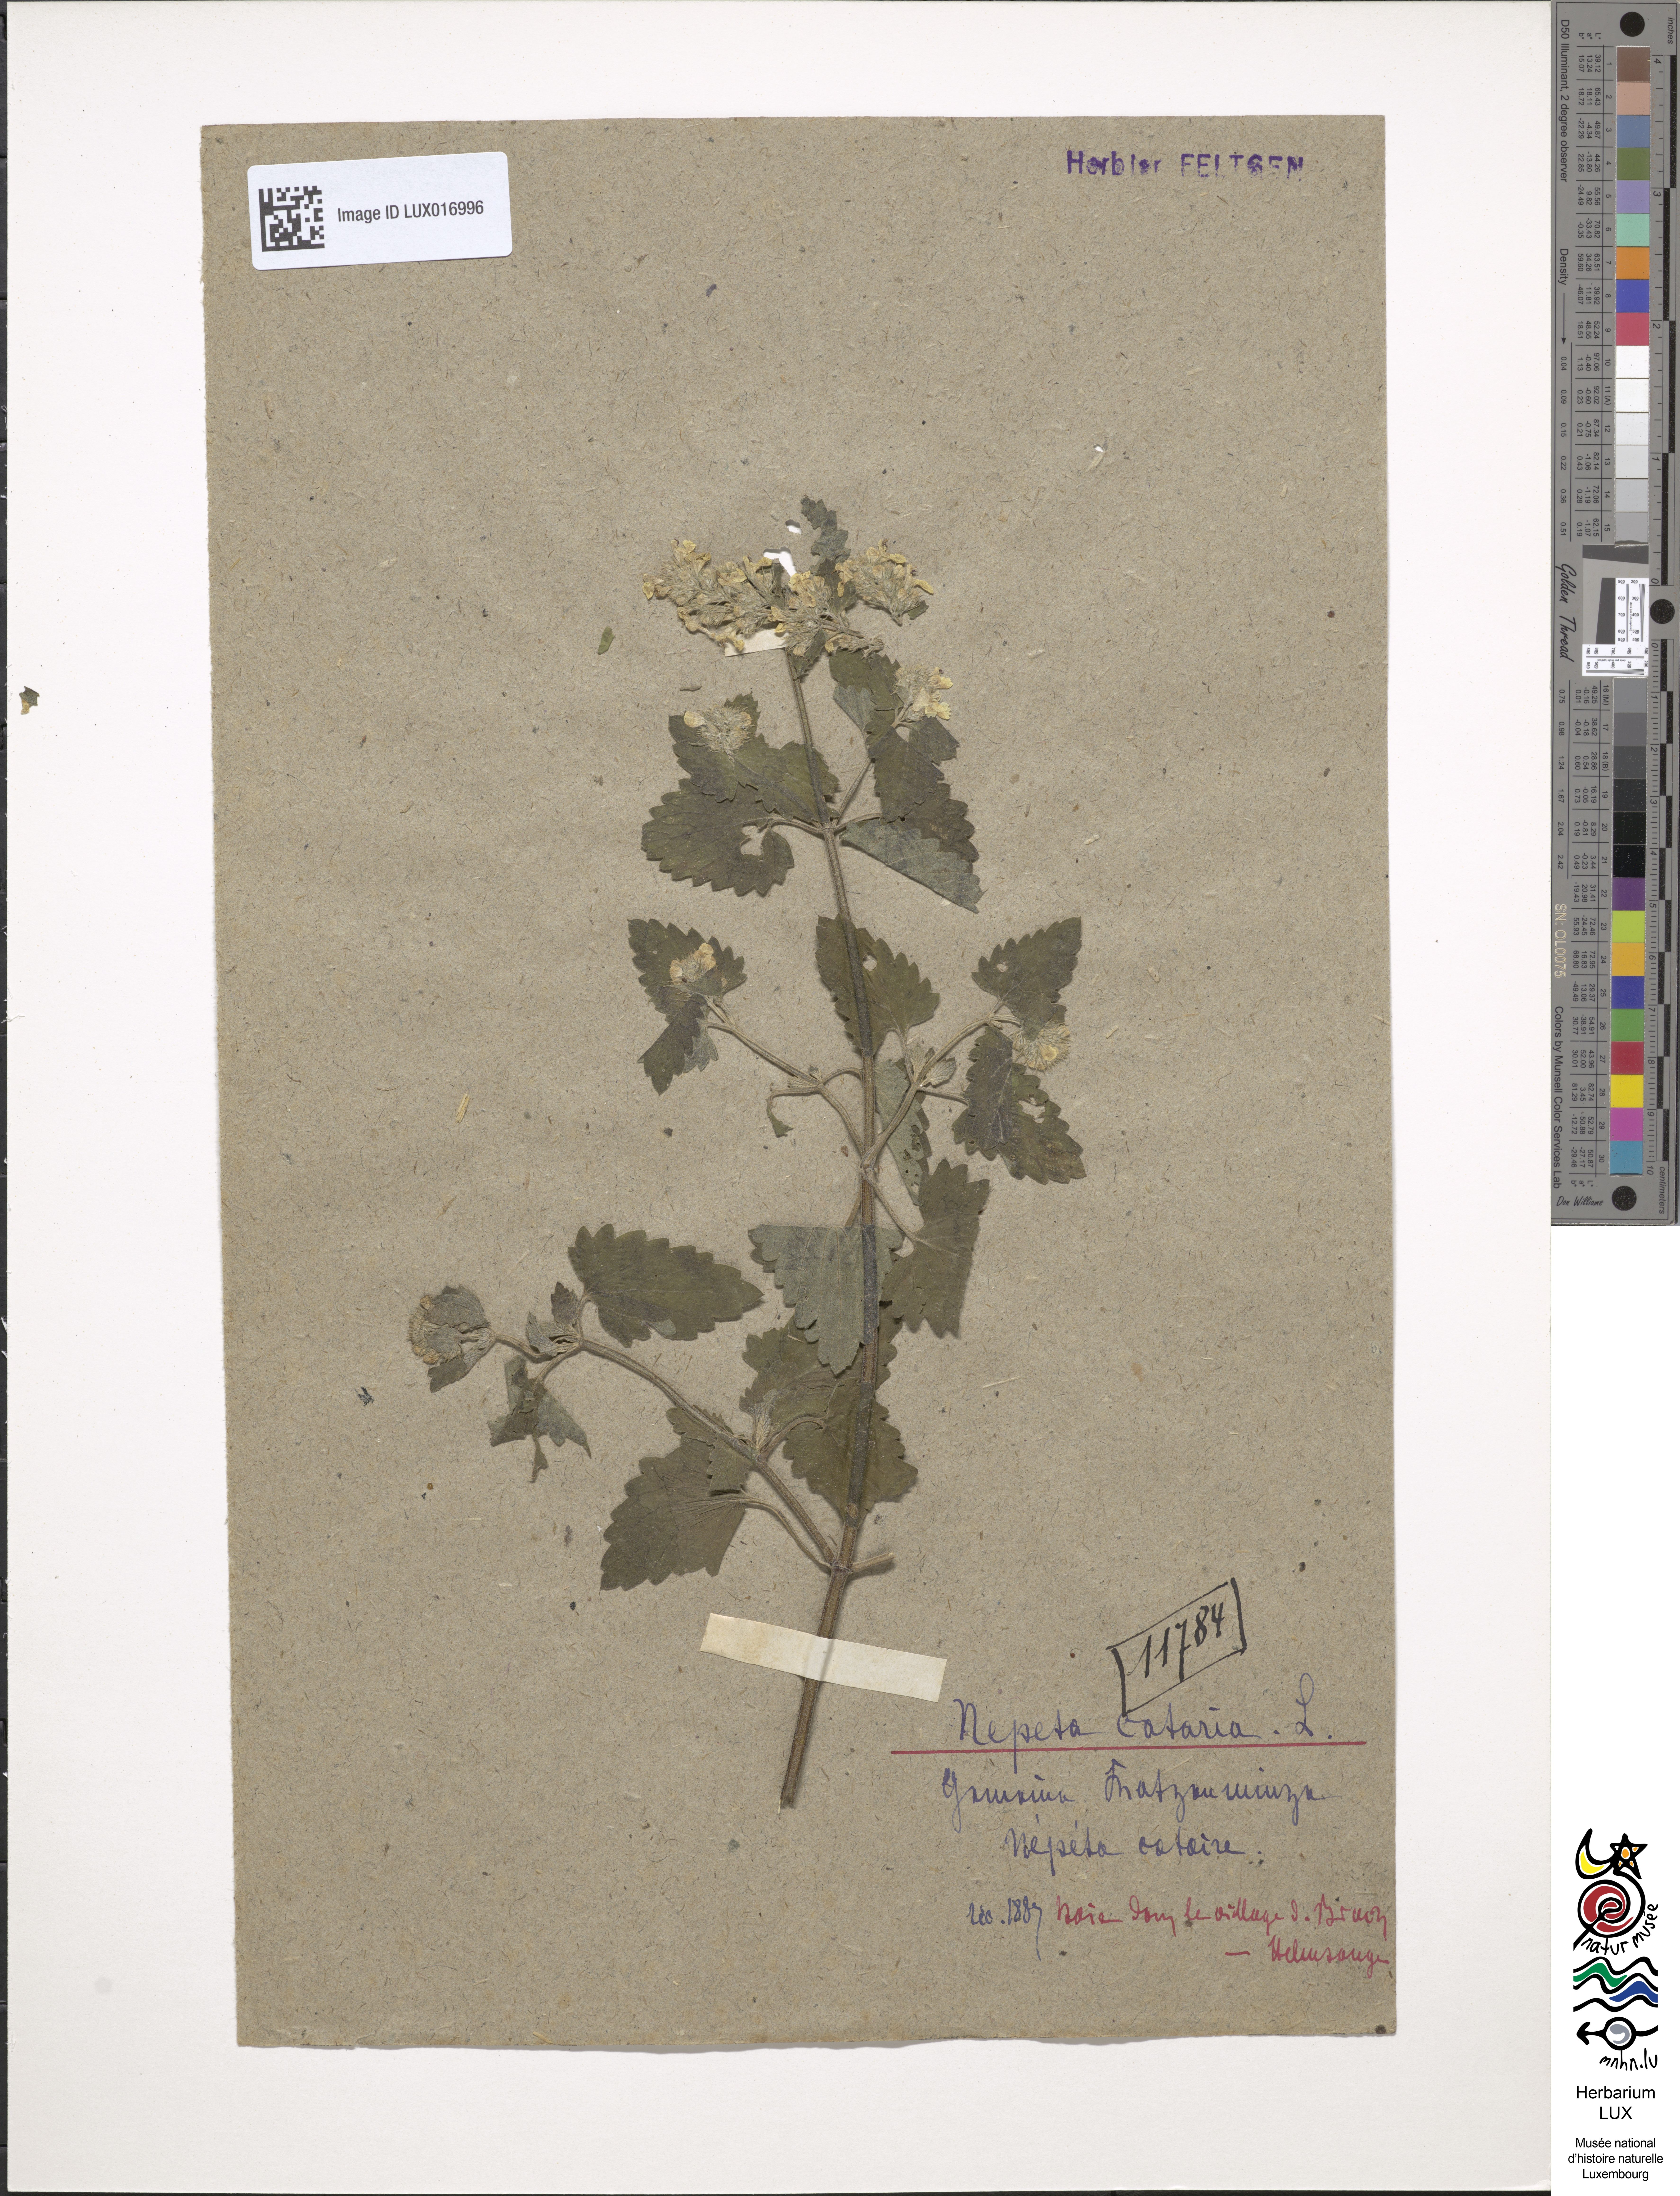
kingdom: Plantae
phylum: Tracheophyta
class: Magnoliopsida
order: Lamiales
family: Lamiaceae
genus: Nepeta
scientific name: Nepeta cataria
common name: Catnip
